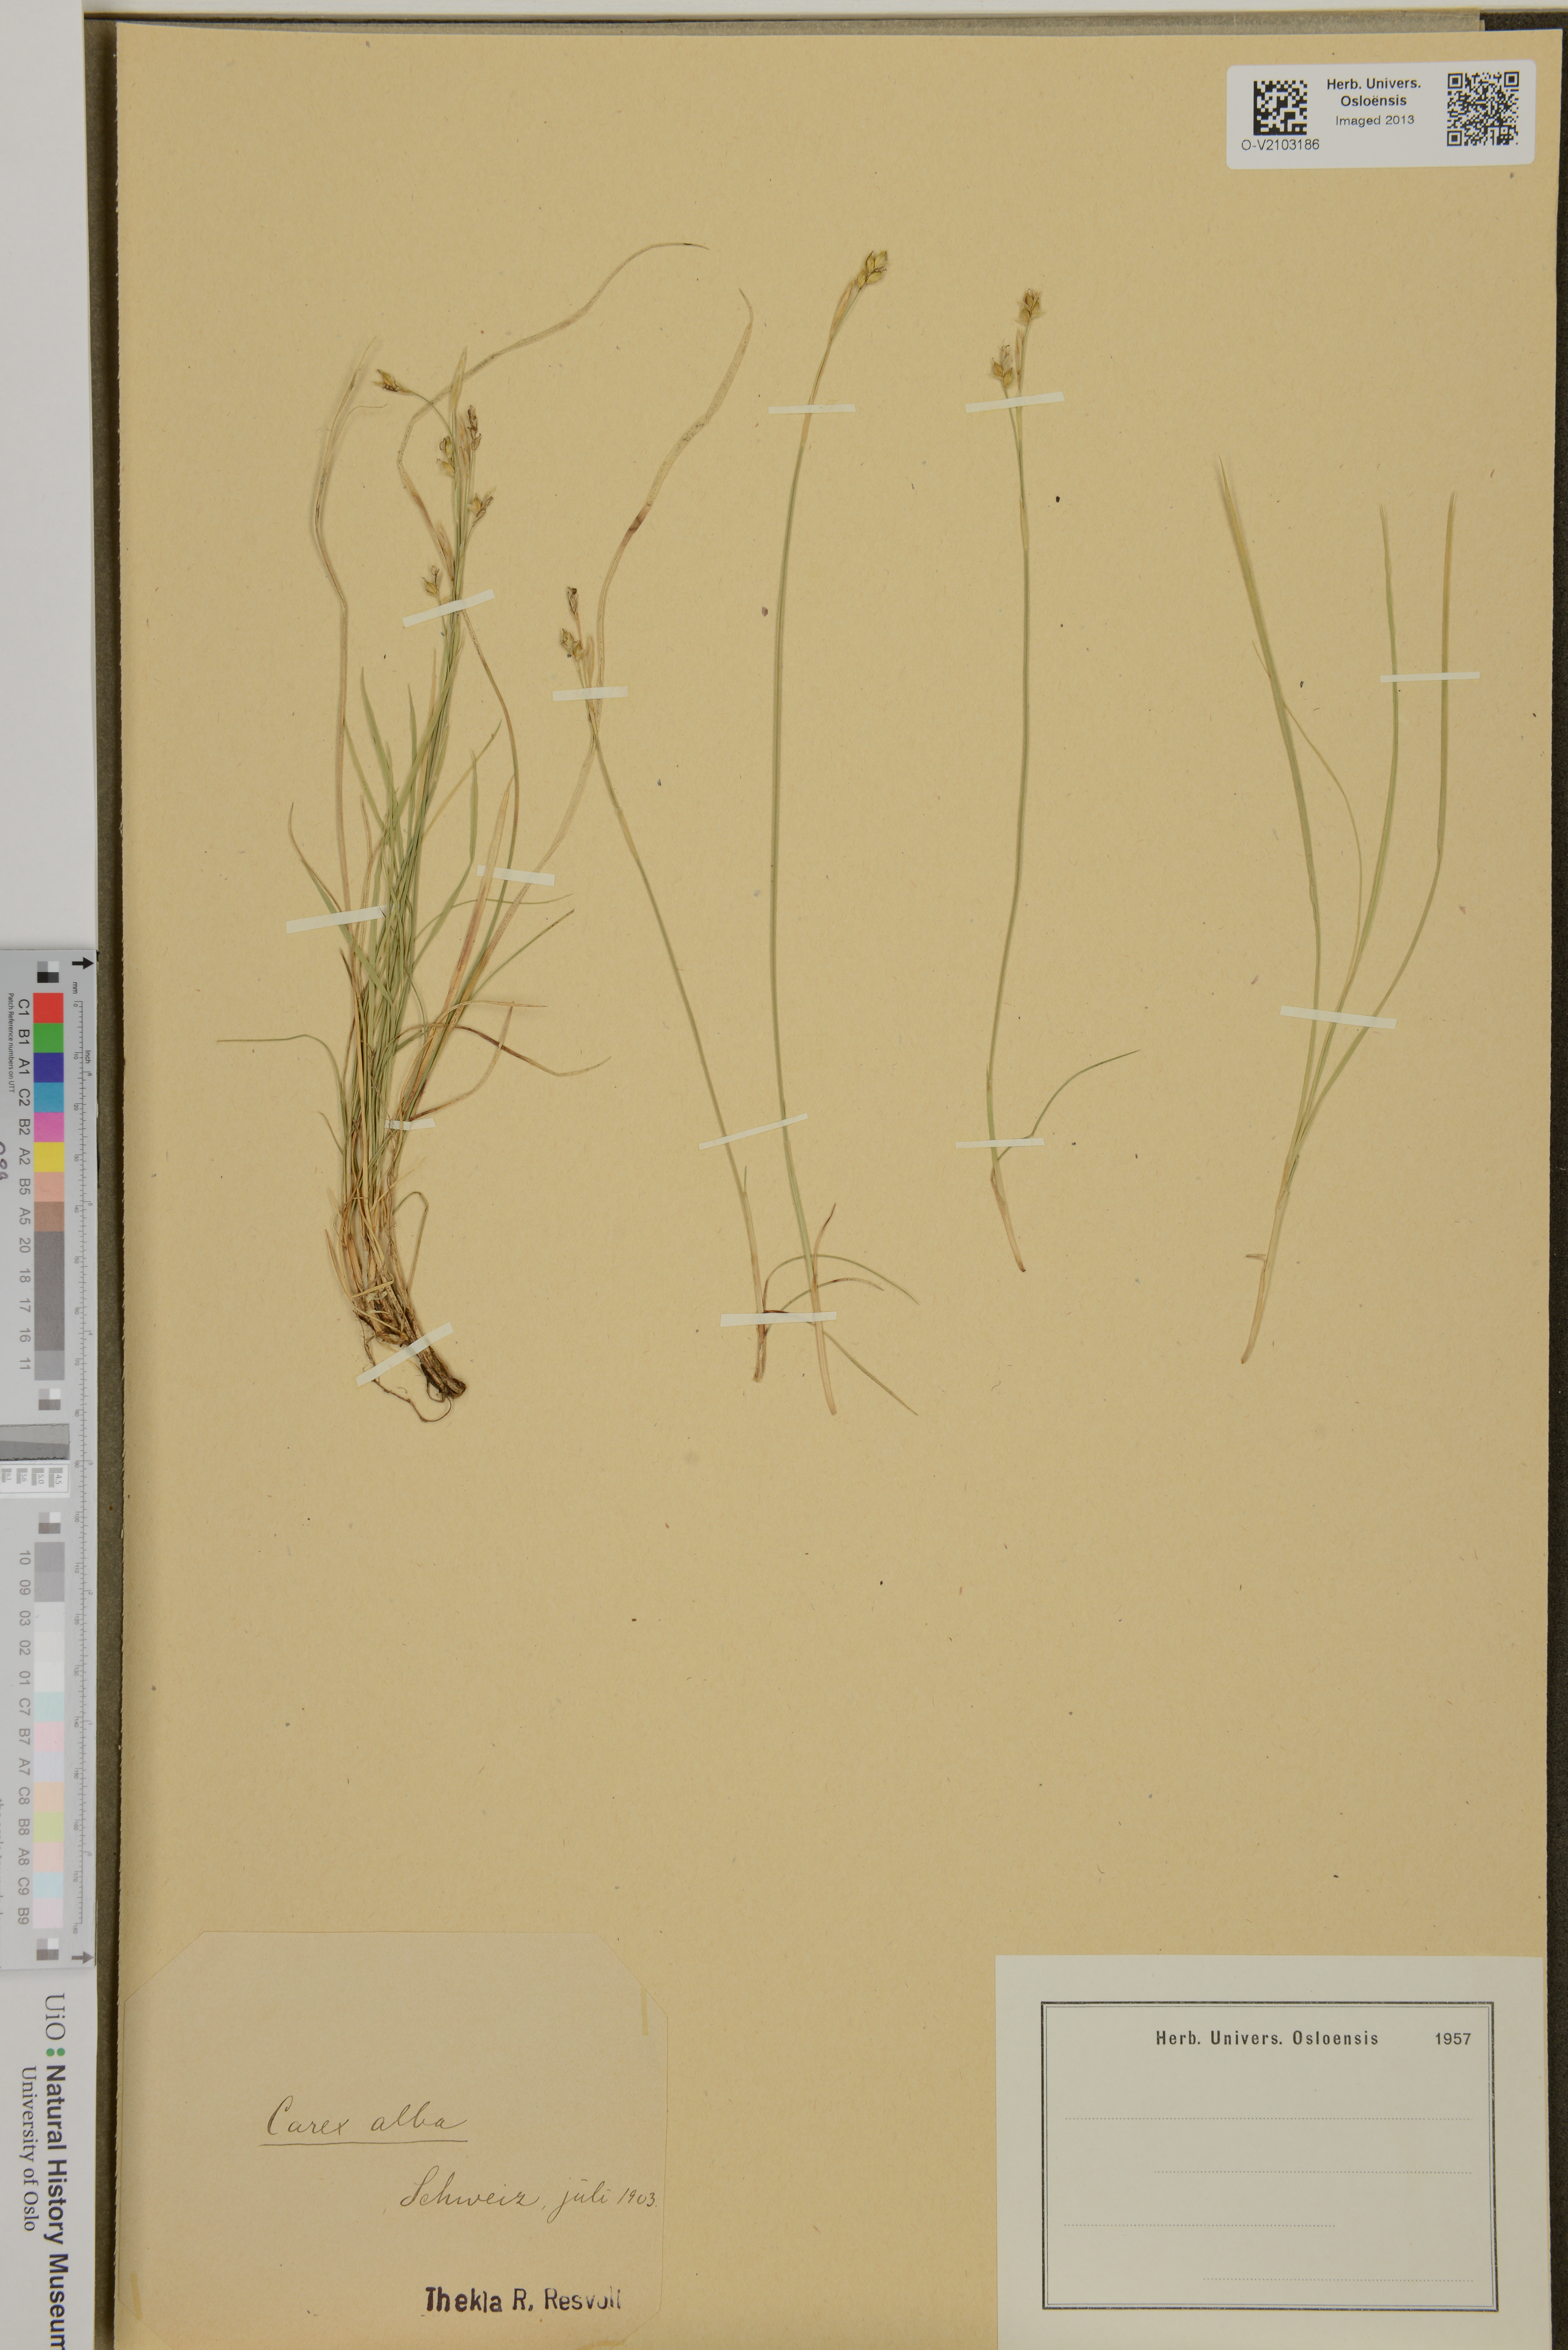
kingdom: Plantae
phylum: Tracheophyta
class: Liliopsida
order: Poales
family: Cyperaceae
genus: Carex
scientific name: Carex alba
